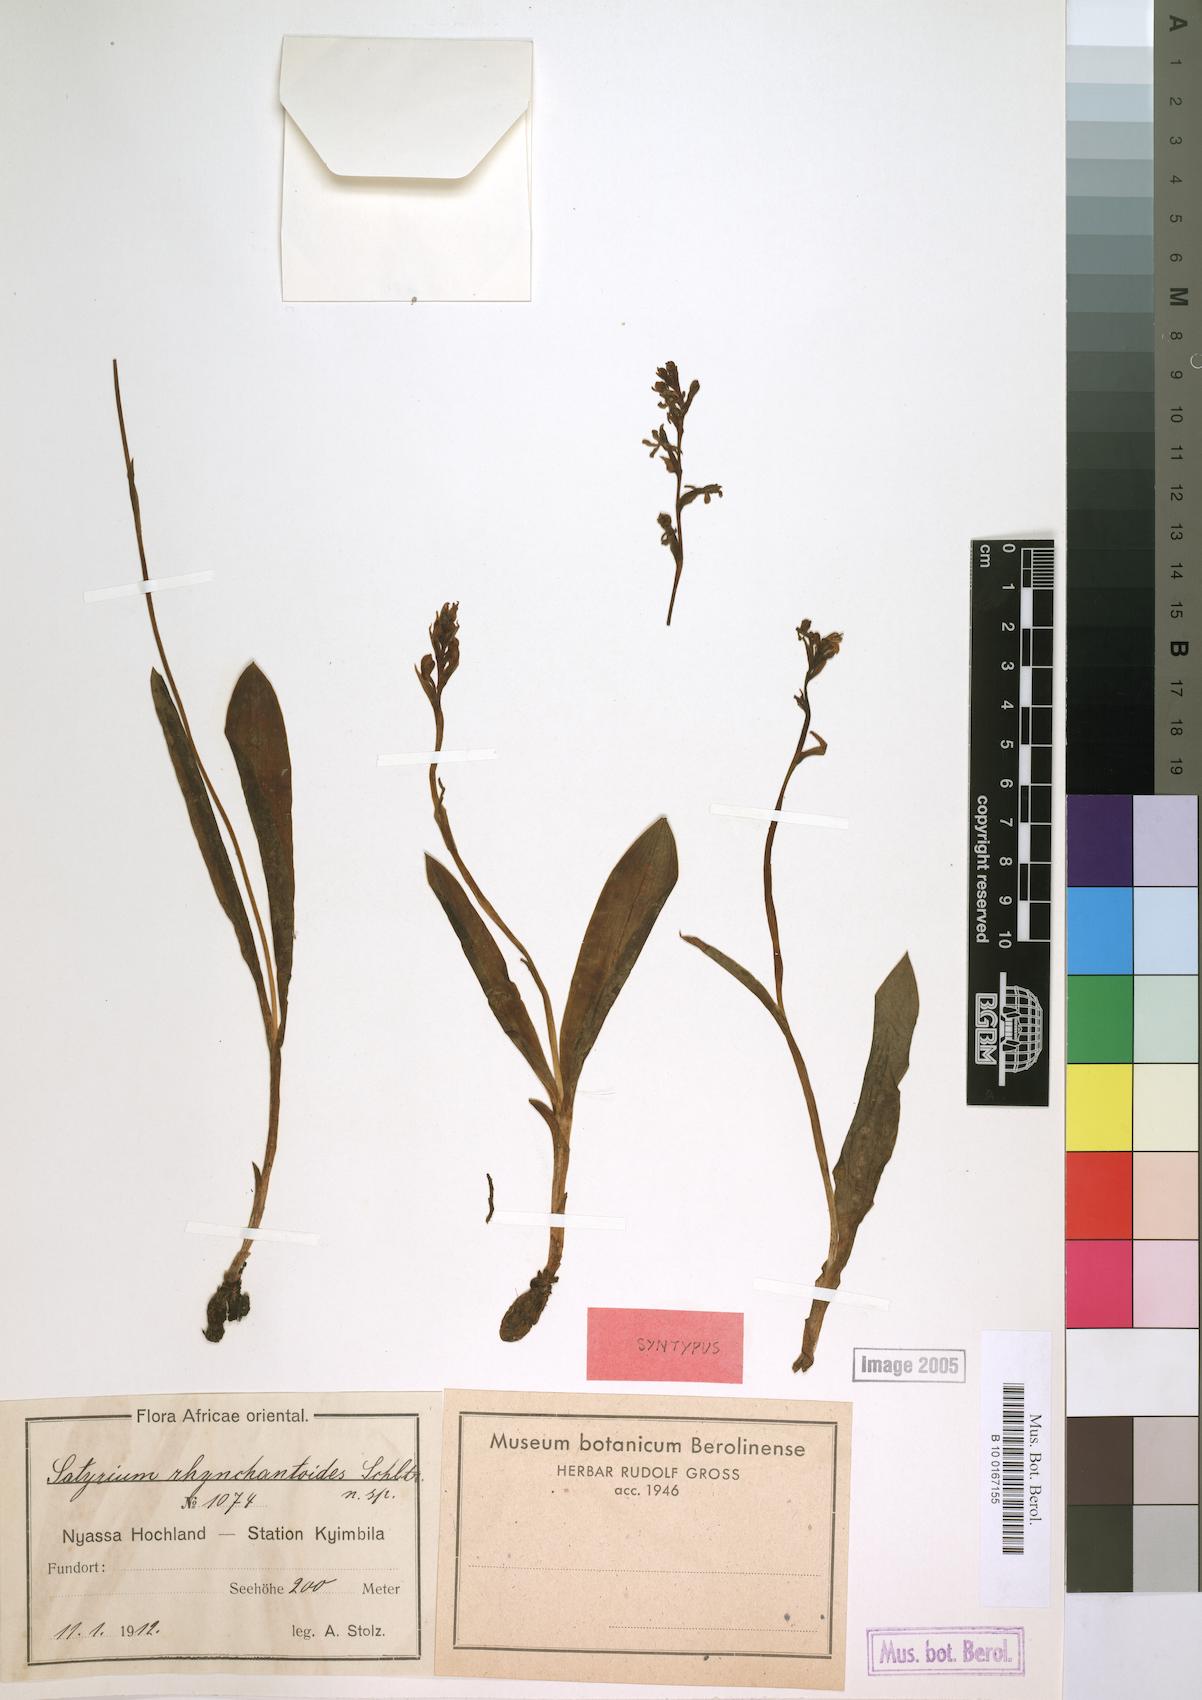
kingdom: Plantae
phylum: Tracheophyta
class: Liliopsida
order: Asparagales
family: Orchidaceae
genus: Satyrium
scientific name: Satyrium rhynchanthoides
